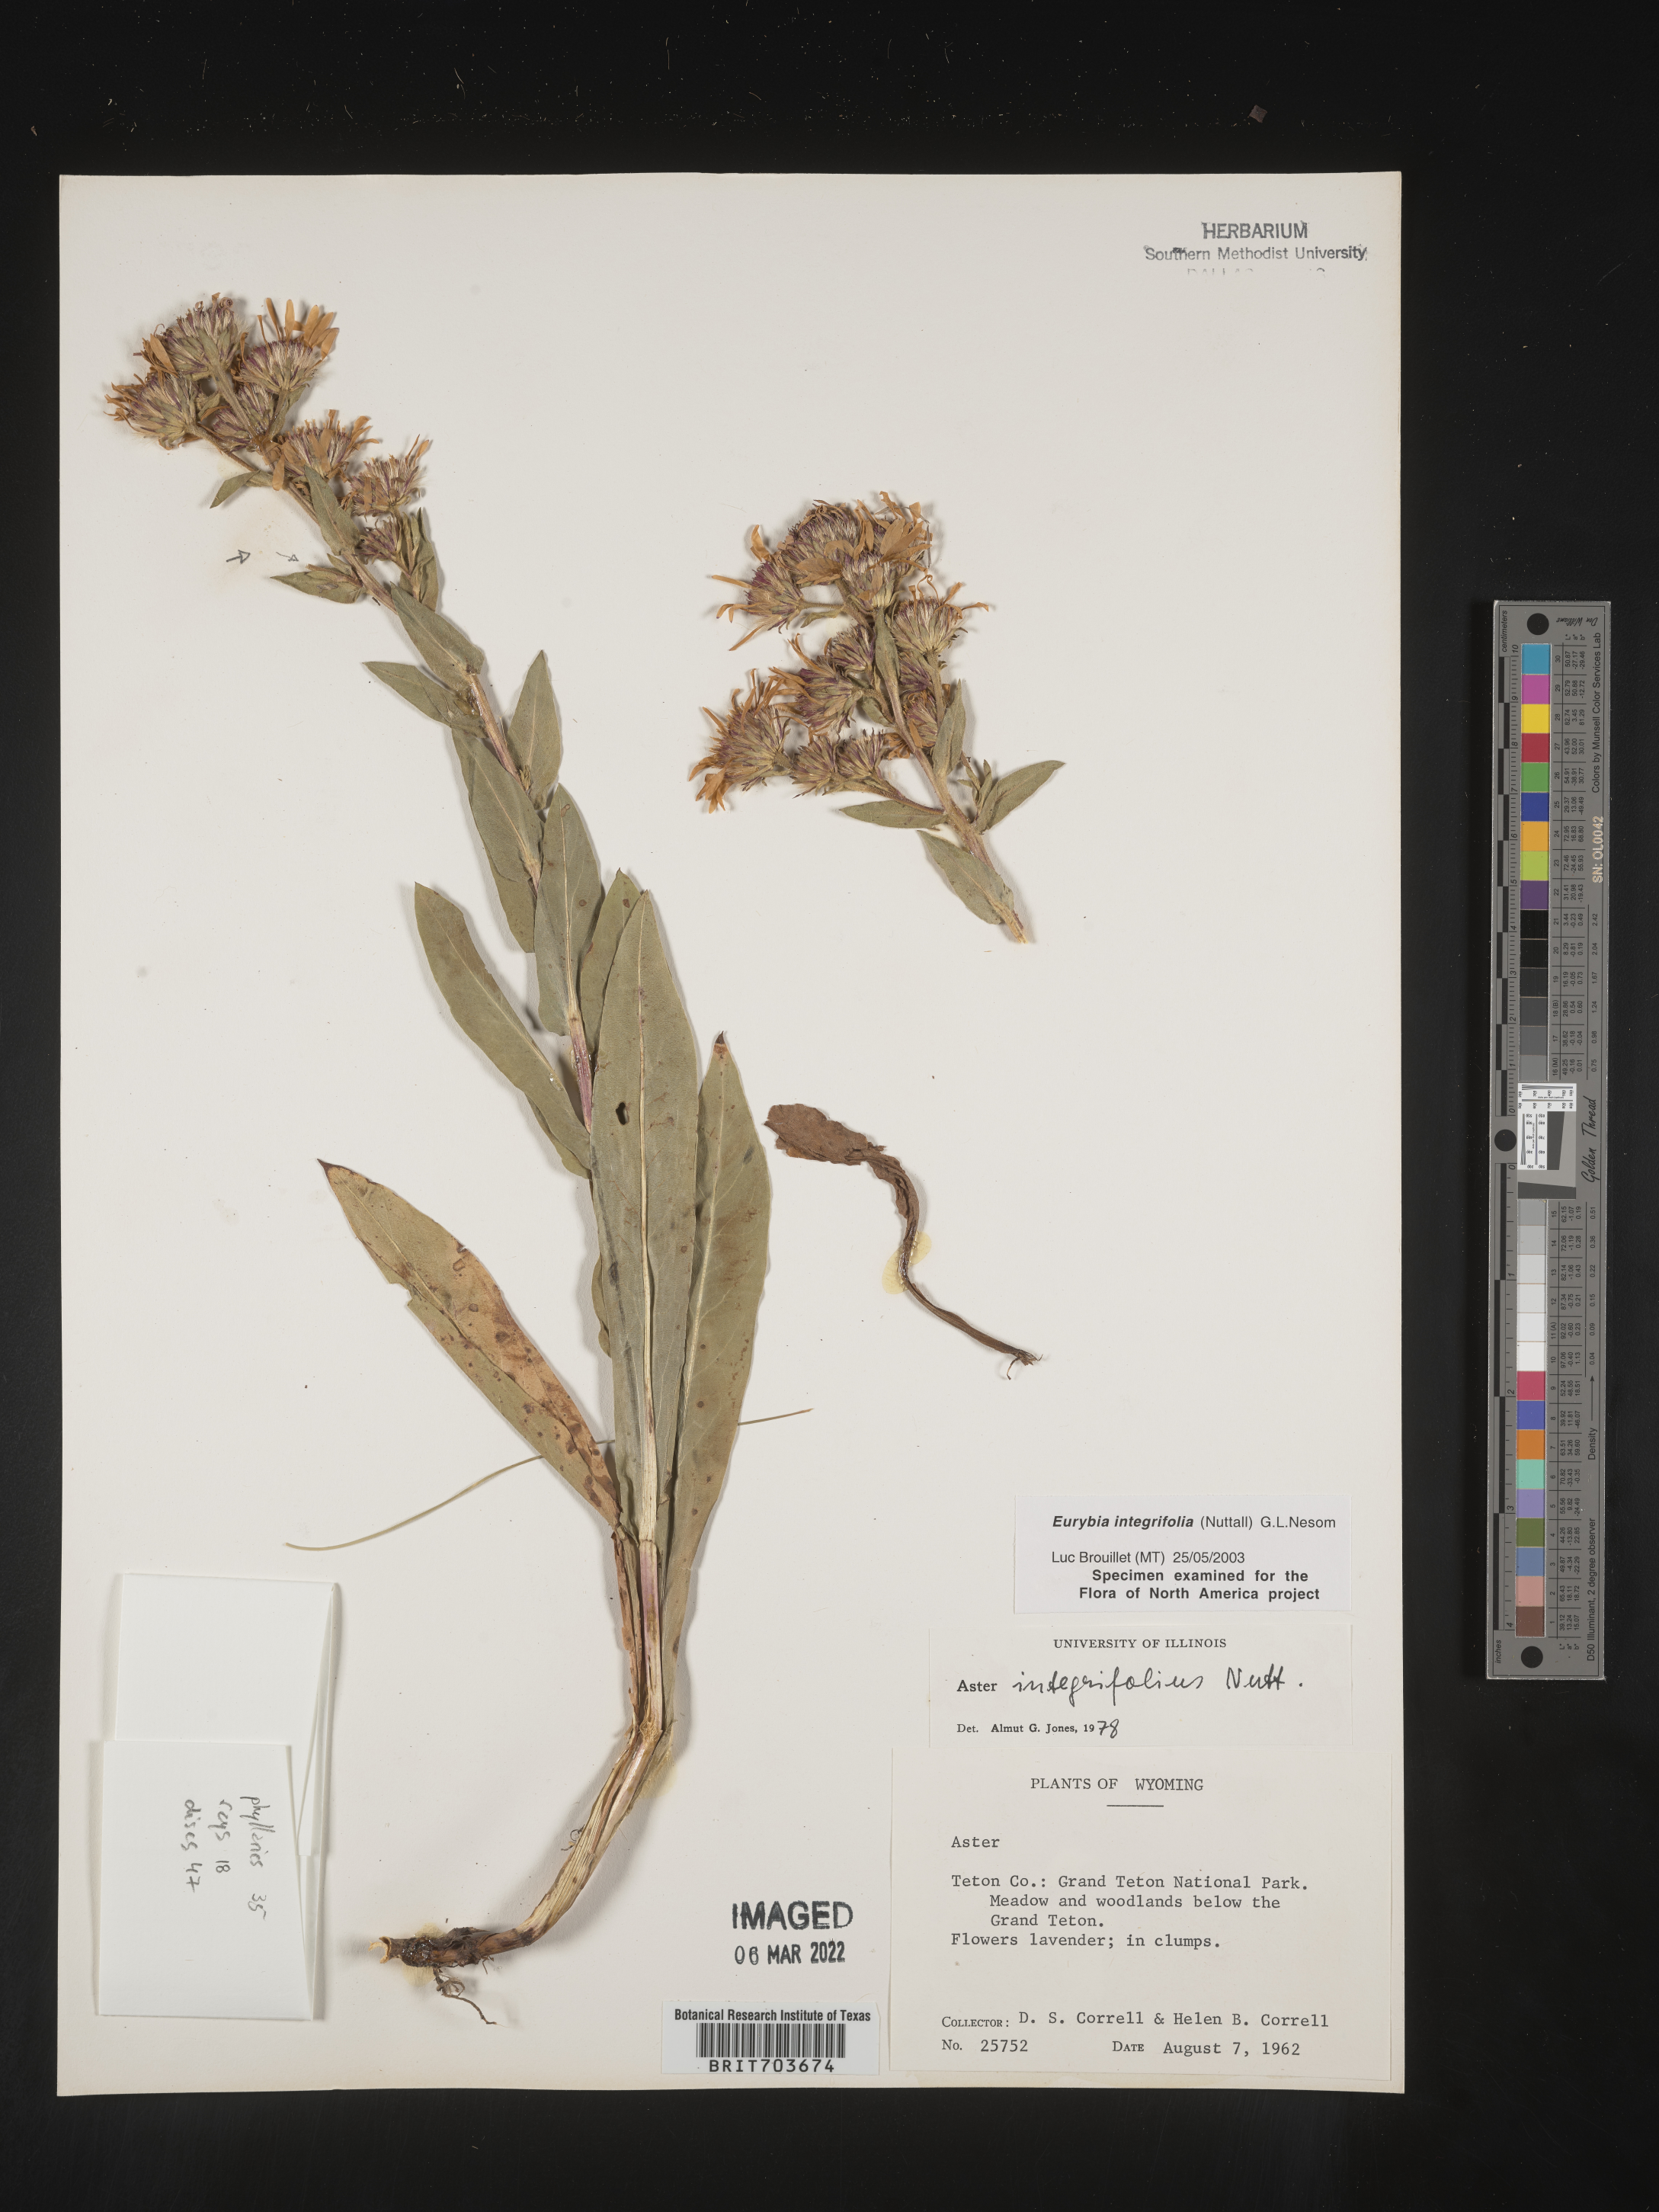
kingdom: Plantae
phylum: Tracheophyta
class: Magnoliopsida
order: Asterales
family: Asteraceae
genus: Eurybia
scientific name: Eurybia integrifolia
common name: Thick-stem aster
